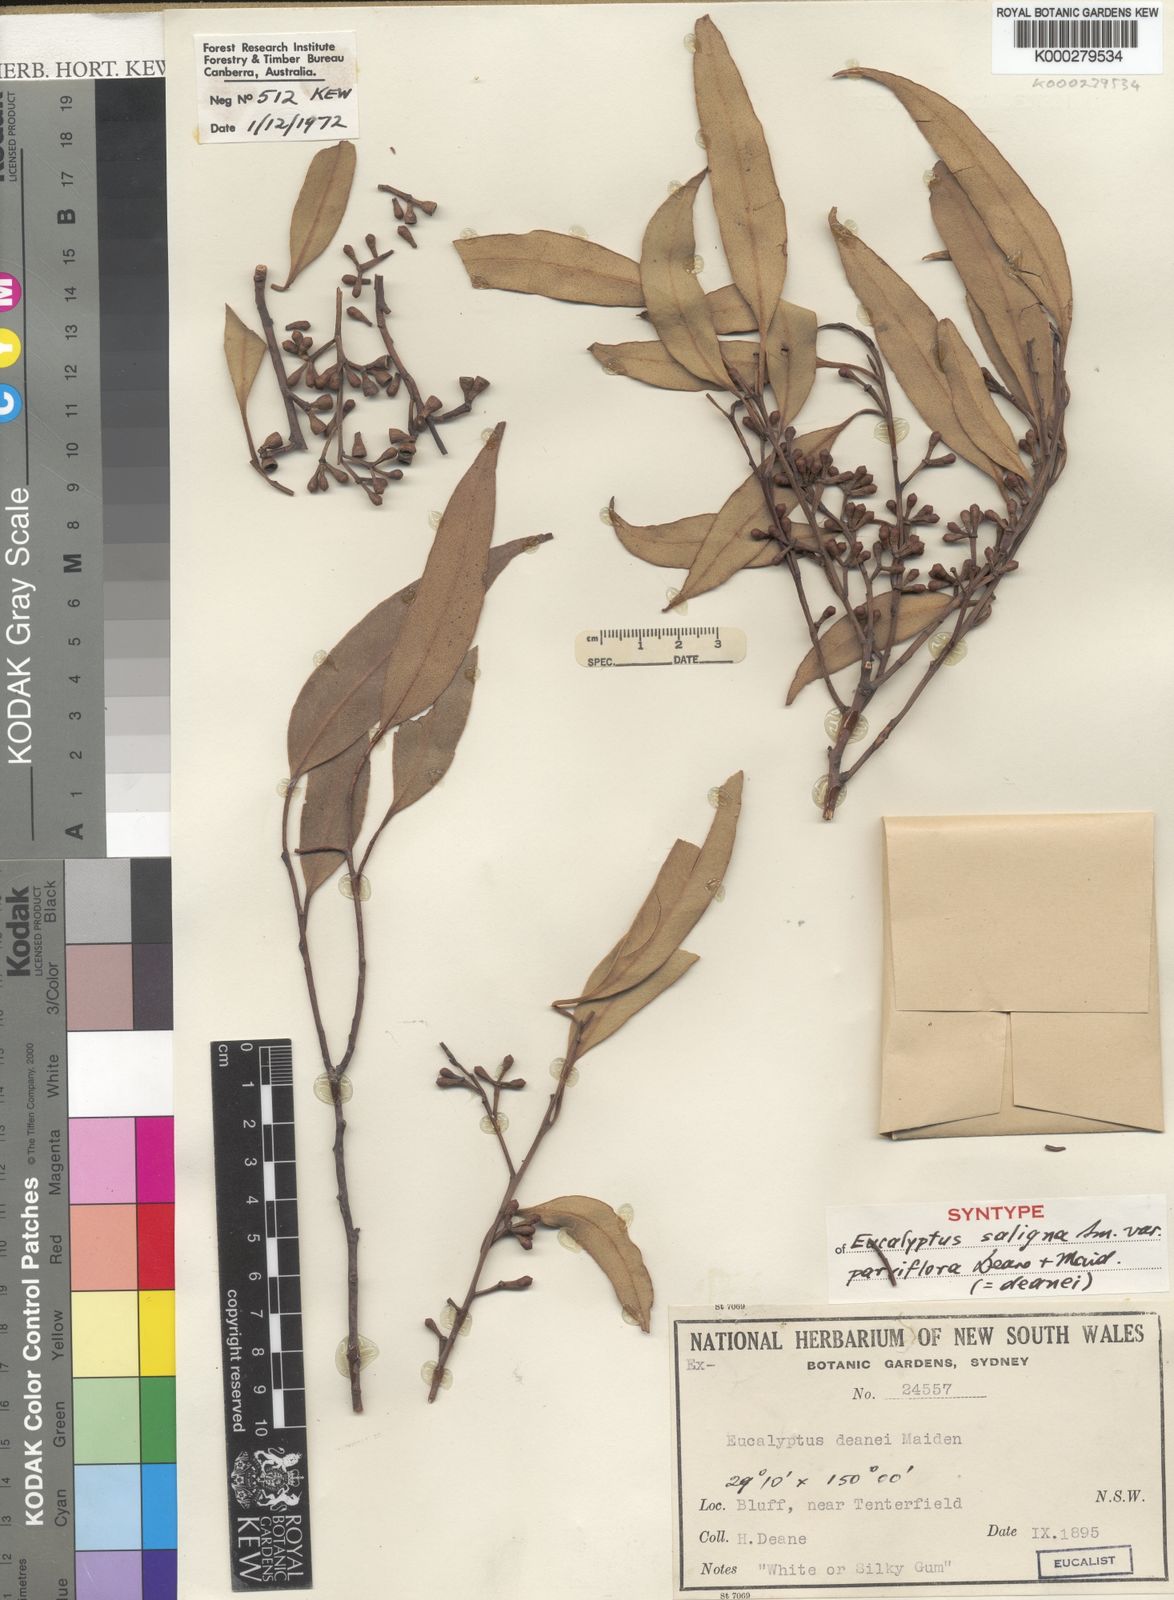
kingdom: Plantae
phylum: Tracheophyta
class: Magnoliopsida
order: Myrtales
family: Myrtaceae
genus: Eucalyptus
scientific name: Eucalyptus deanei
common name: Brown gum
